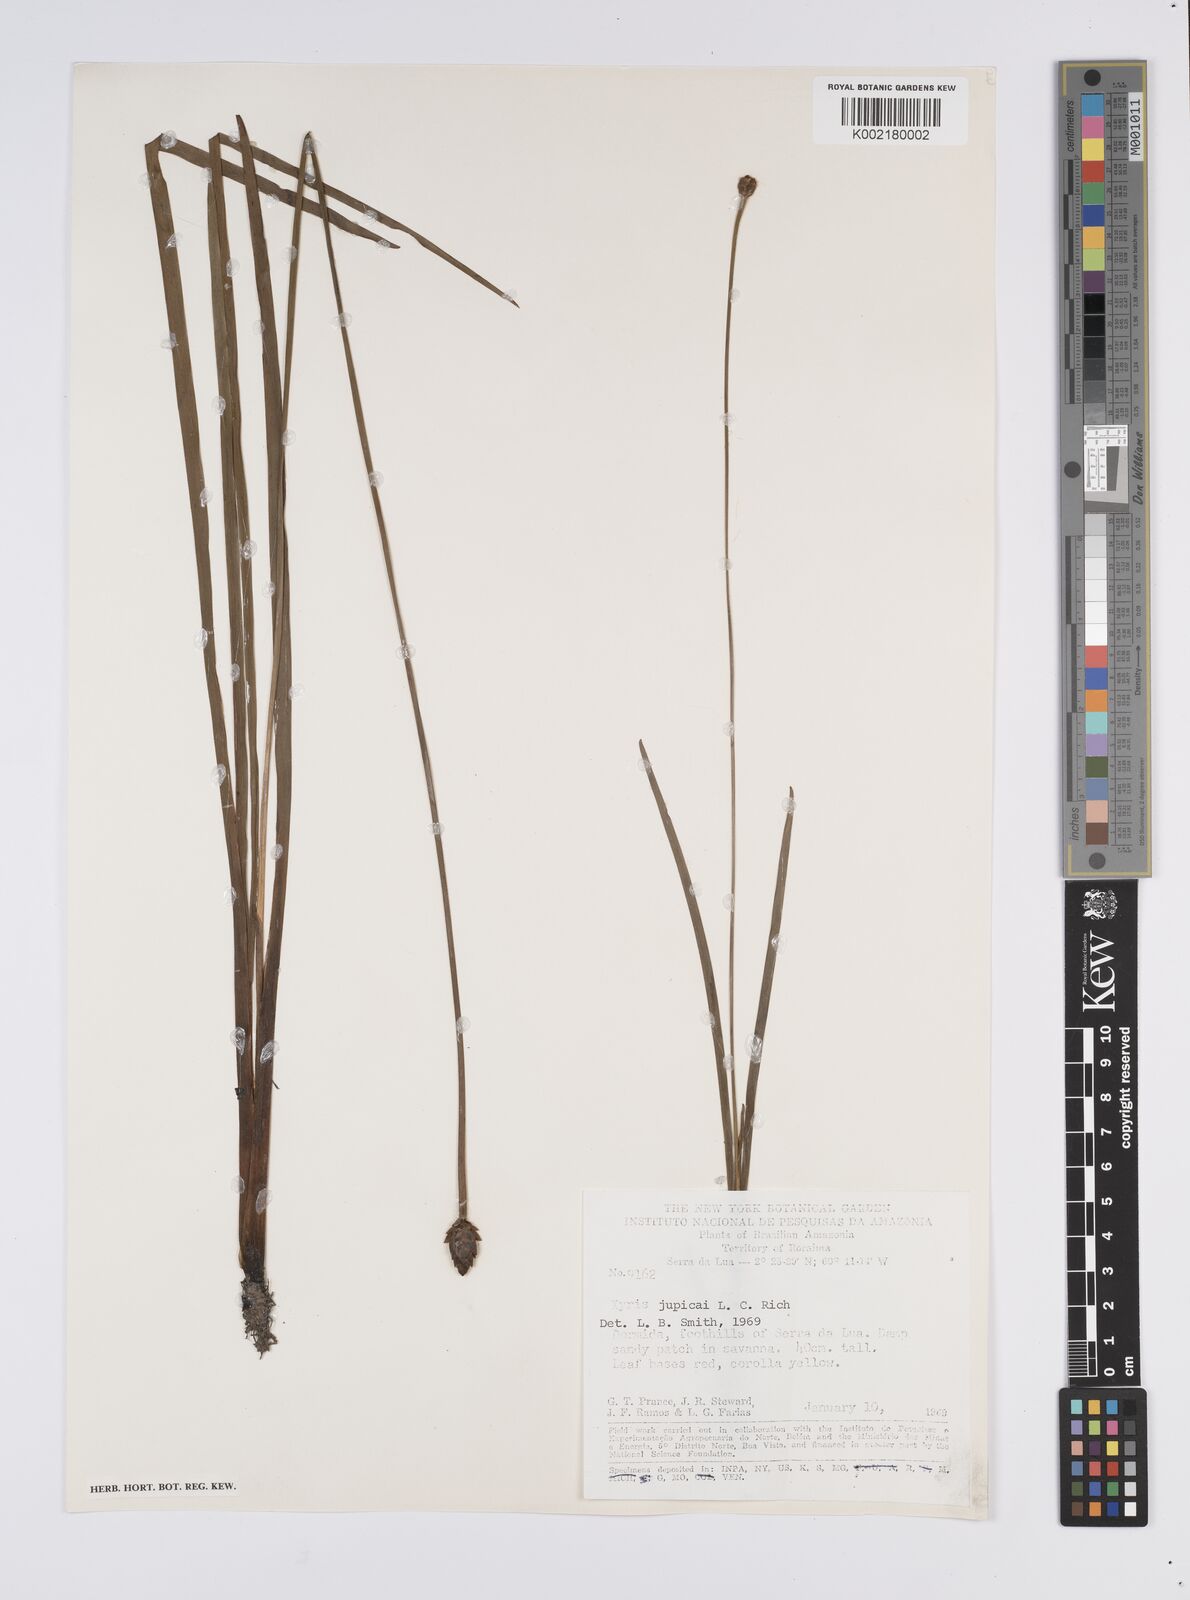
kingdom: Plantae
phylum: Tracheophyta
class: Liliopsida
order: Poales
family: Xyridaceae
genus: Xyris
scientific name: Xyris jupicai
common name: Richard's yelloweyed grass
